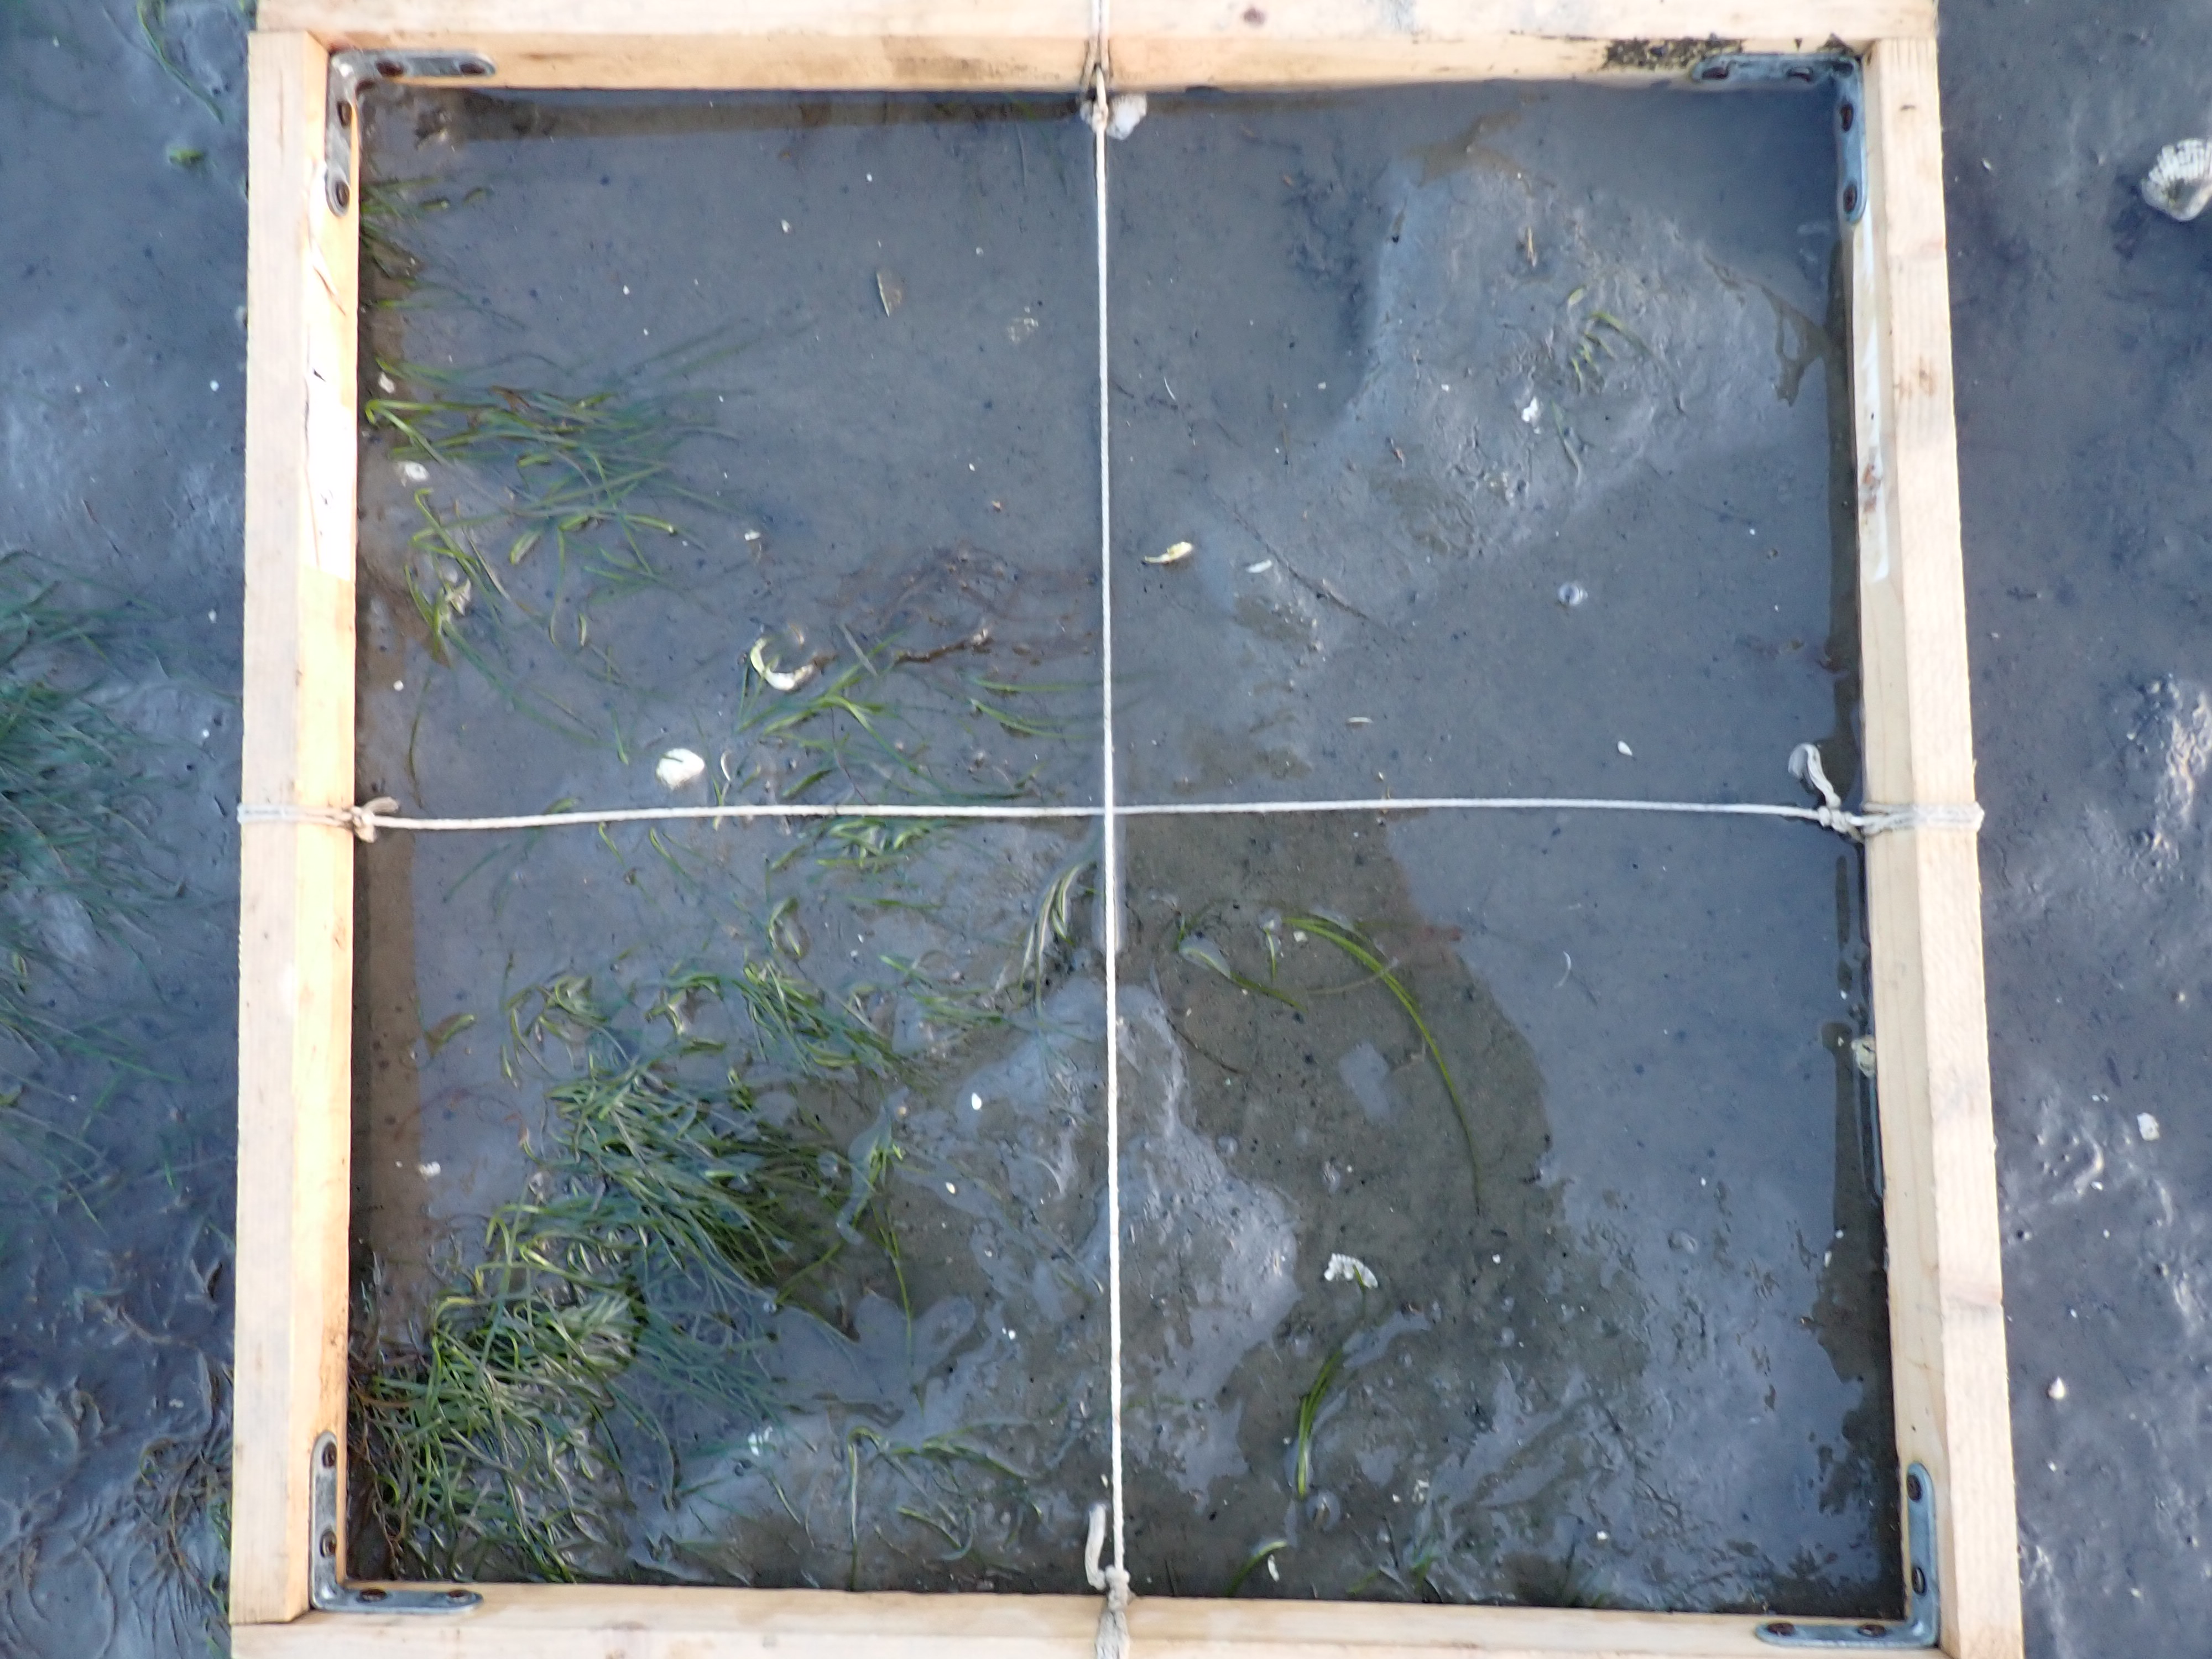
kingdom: Plantae
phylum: Rhodophyta
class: Florideophyceae
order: Gracilariales
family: Gracilariaceae
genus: Gracilaria
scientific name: Gracilaria vermiculophylla
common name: Algae
